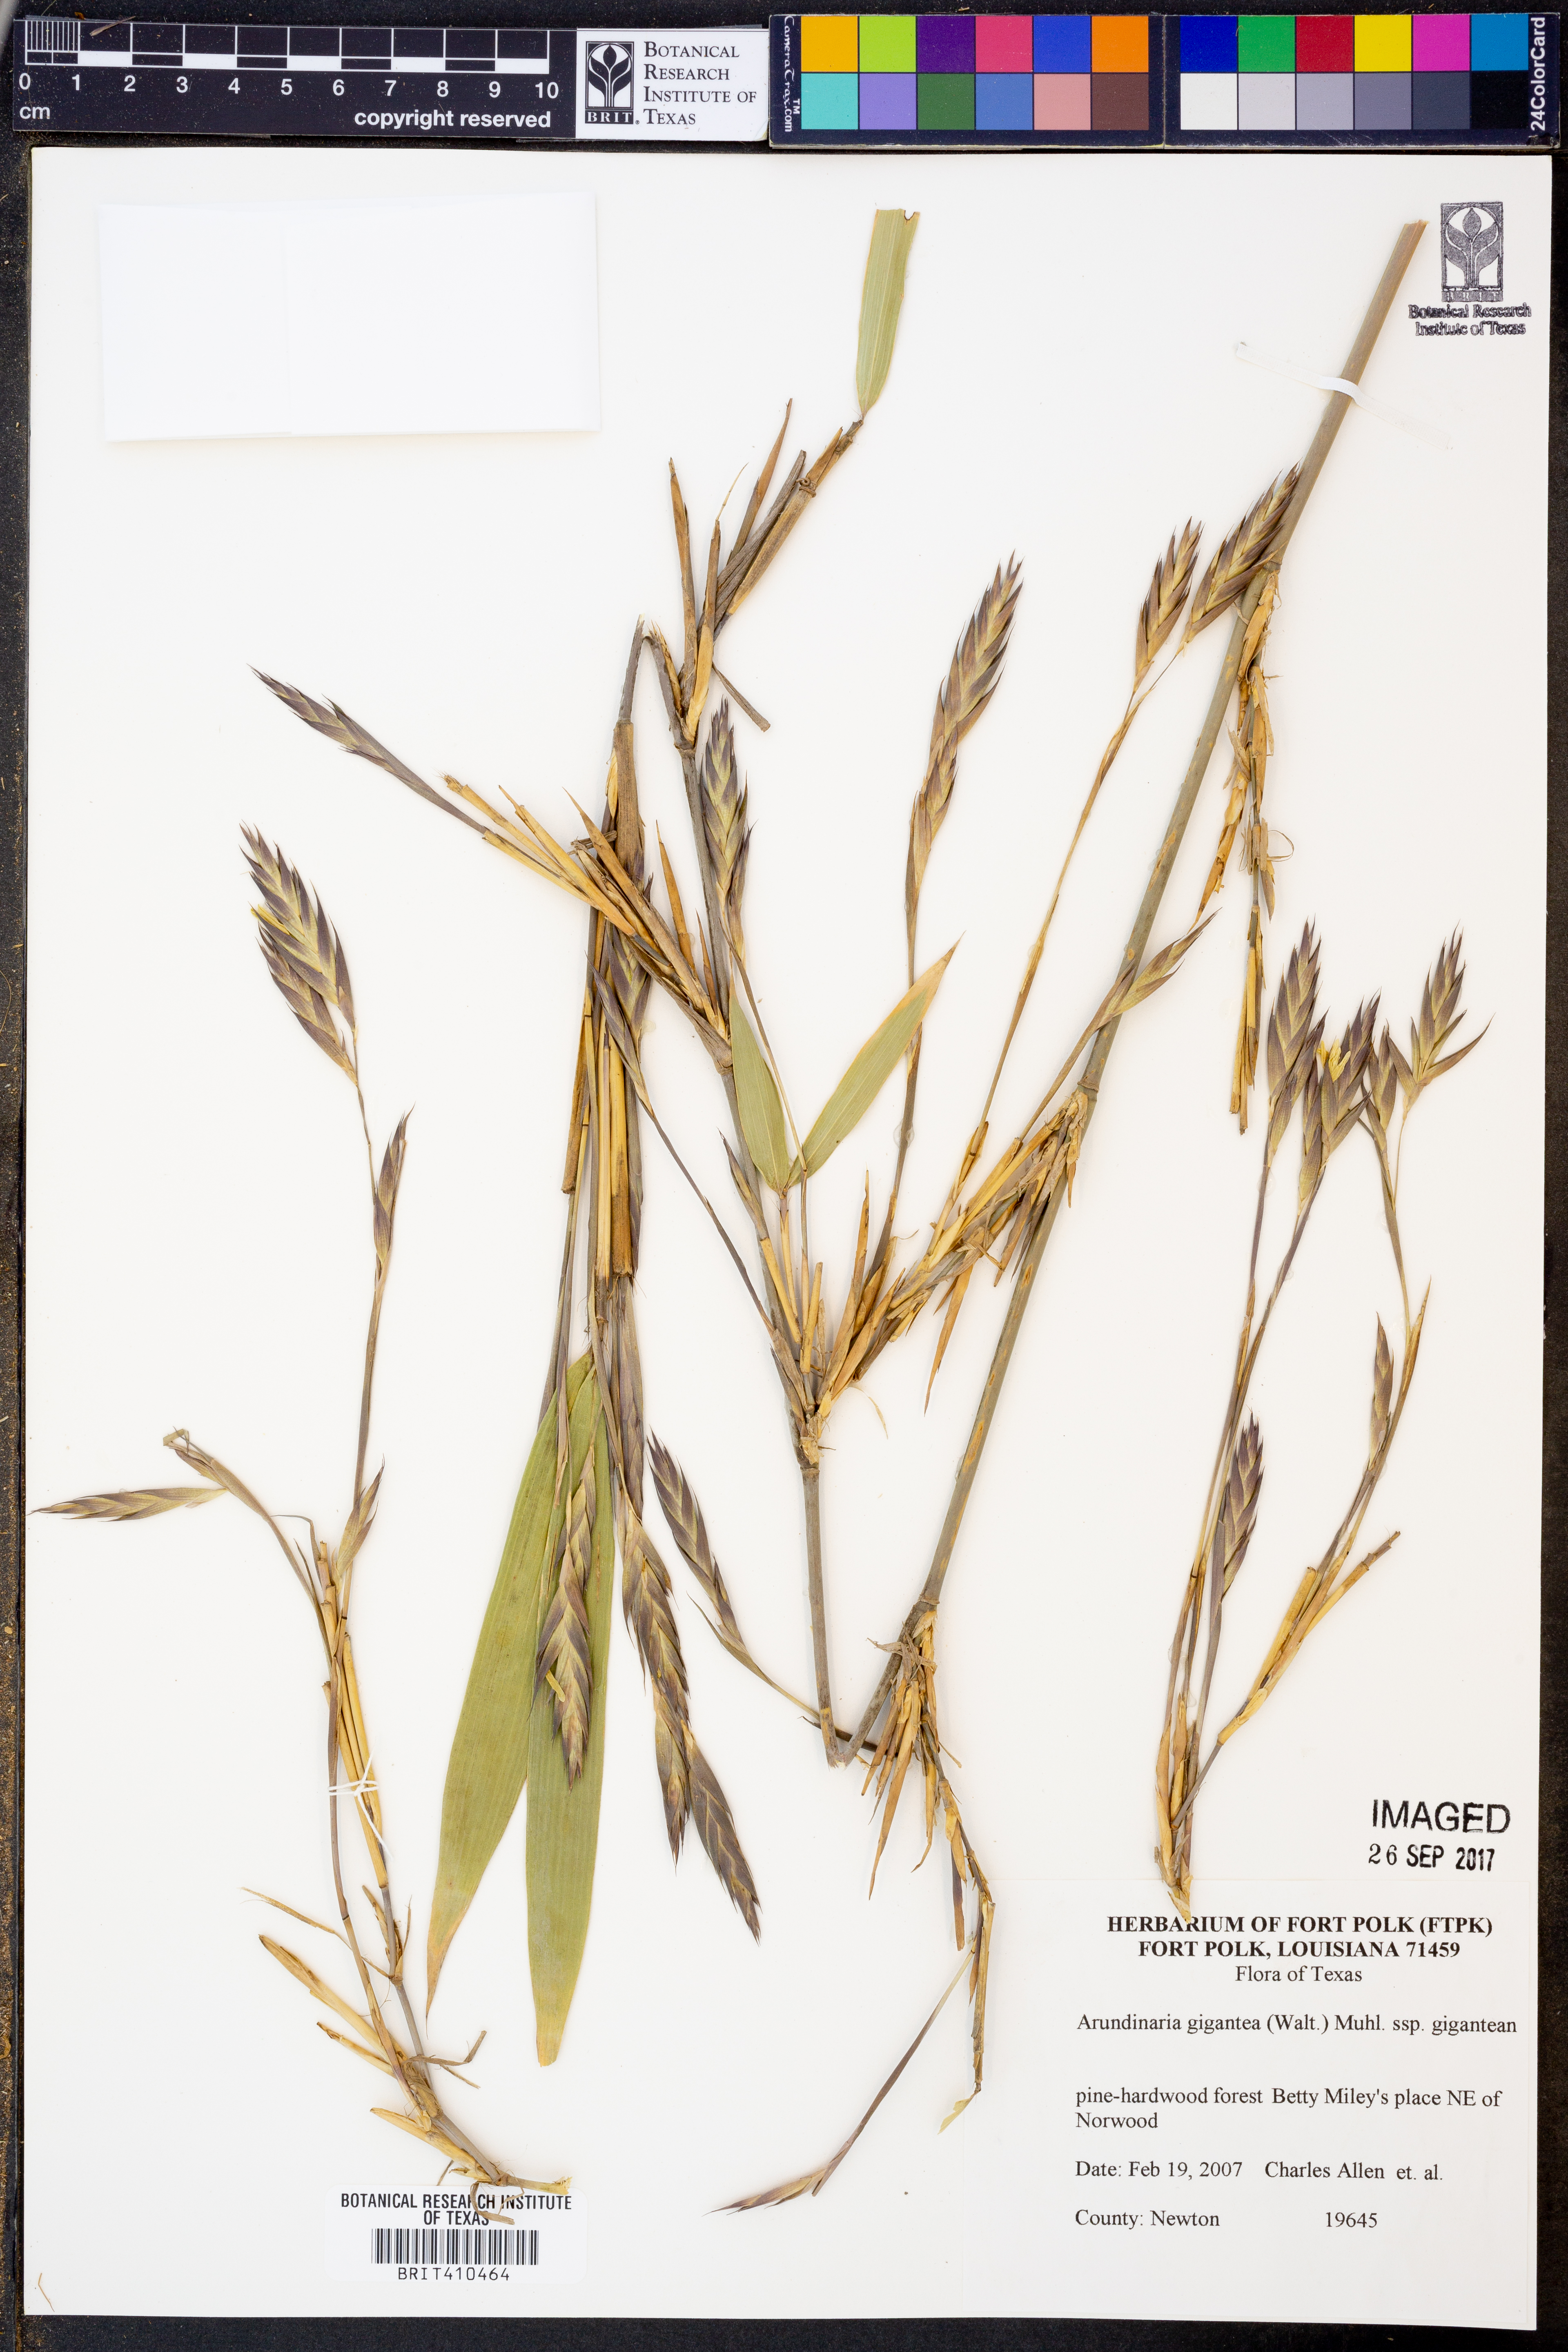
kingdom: Plantae
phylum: Tracheophyta
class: Liliopsida
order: Poales
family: Poaceae
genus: Arundinaria
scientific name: Arundinaria gigantea
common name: Giant cane
